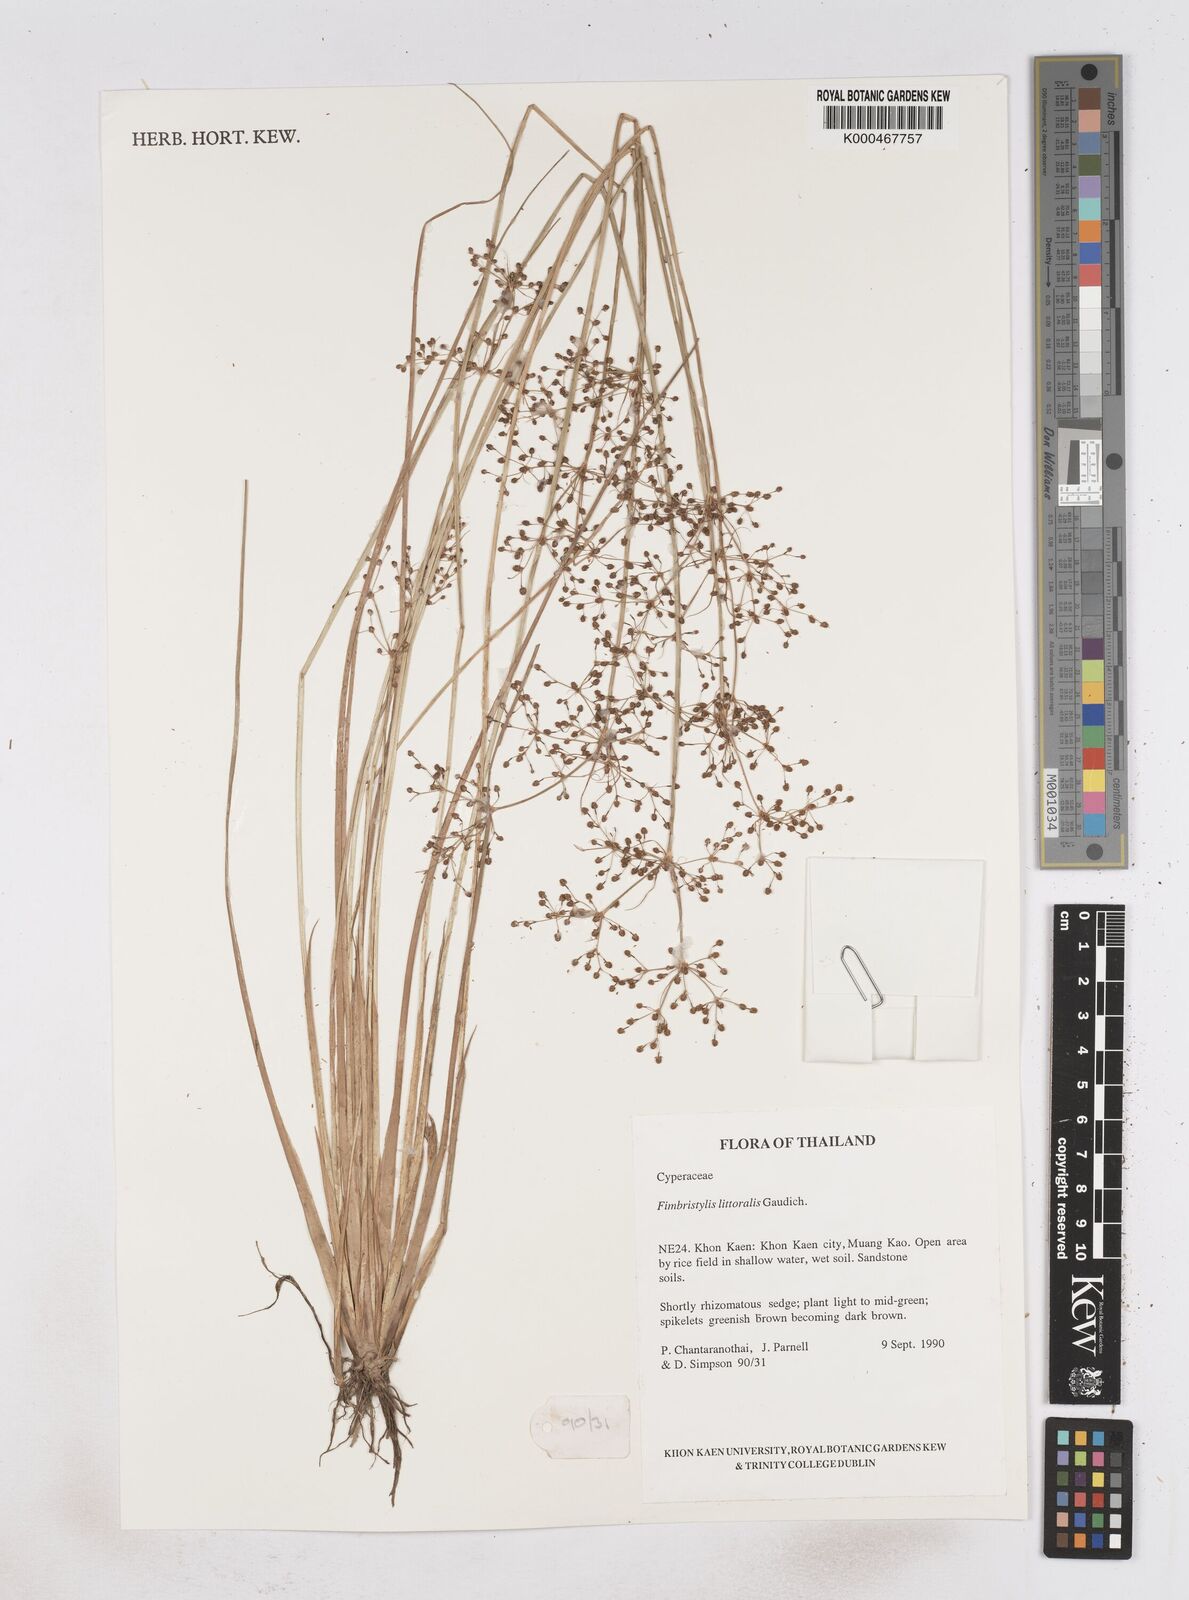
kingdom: Plantae
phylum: Tracheophyta
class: Liliopsida
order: Poales
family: Cyperaceae
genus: Fimbristylis
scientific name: Fimbristylis quinquangularis
